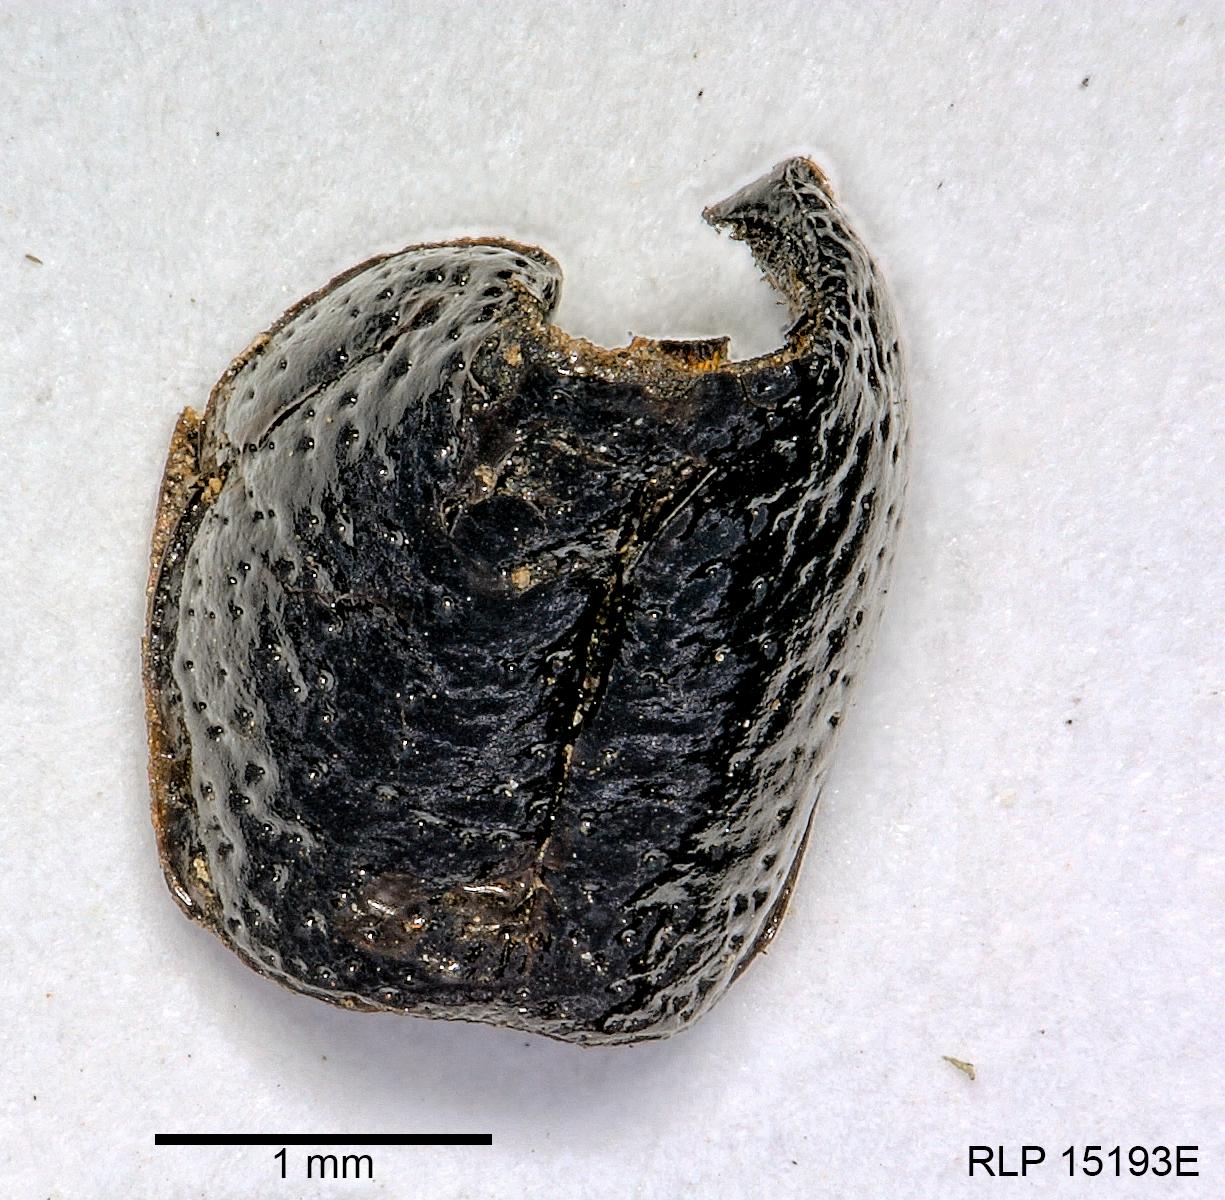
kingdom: Animalia
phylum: Arthropoda
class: Insecta
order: Coleoptera
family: Carabidae
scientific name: Carabidae
